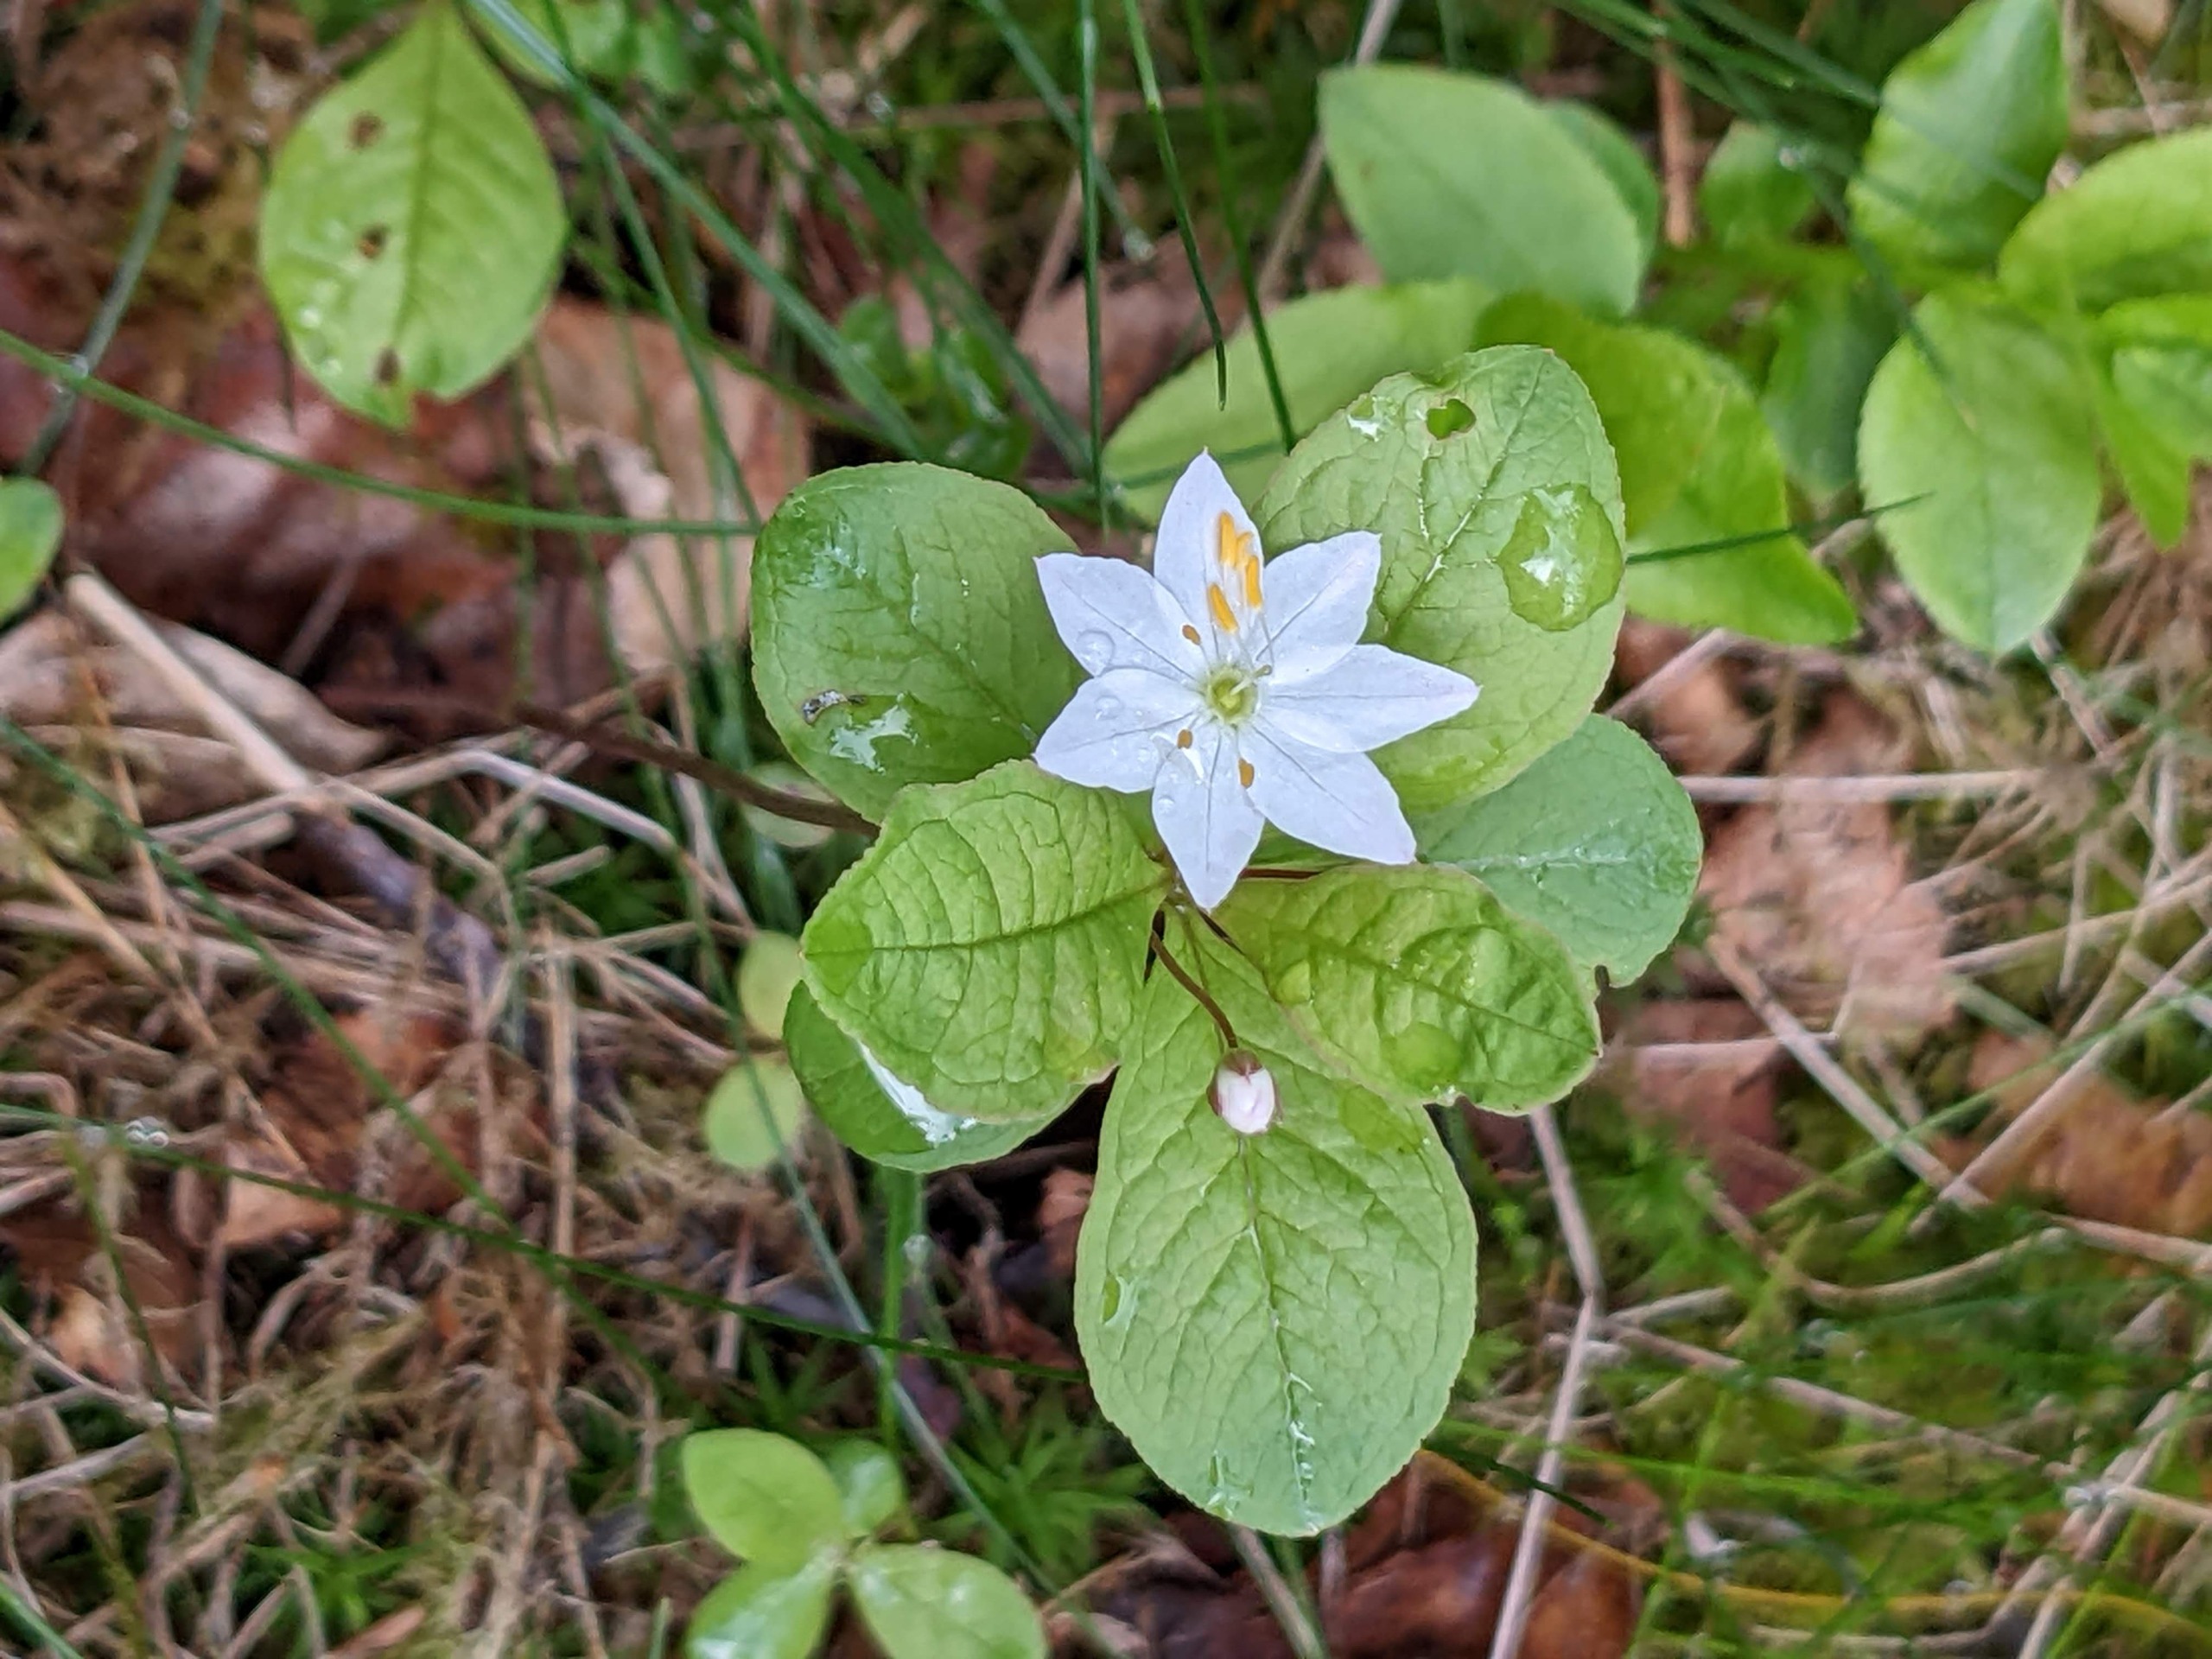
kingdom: Plantae
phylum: Tracheophyta
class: Magnoliopsida
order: Ericales
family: Primulaceae
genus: Lysimachia
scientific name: Lysimachia europaea
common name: Skovstjerne
